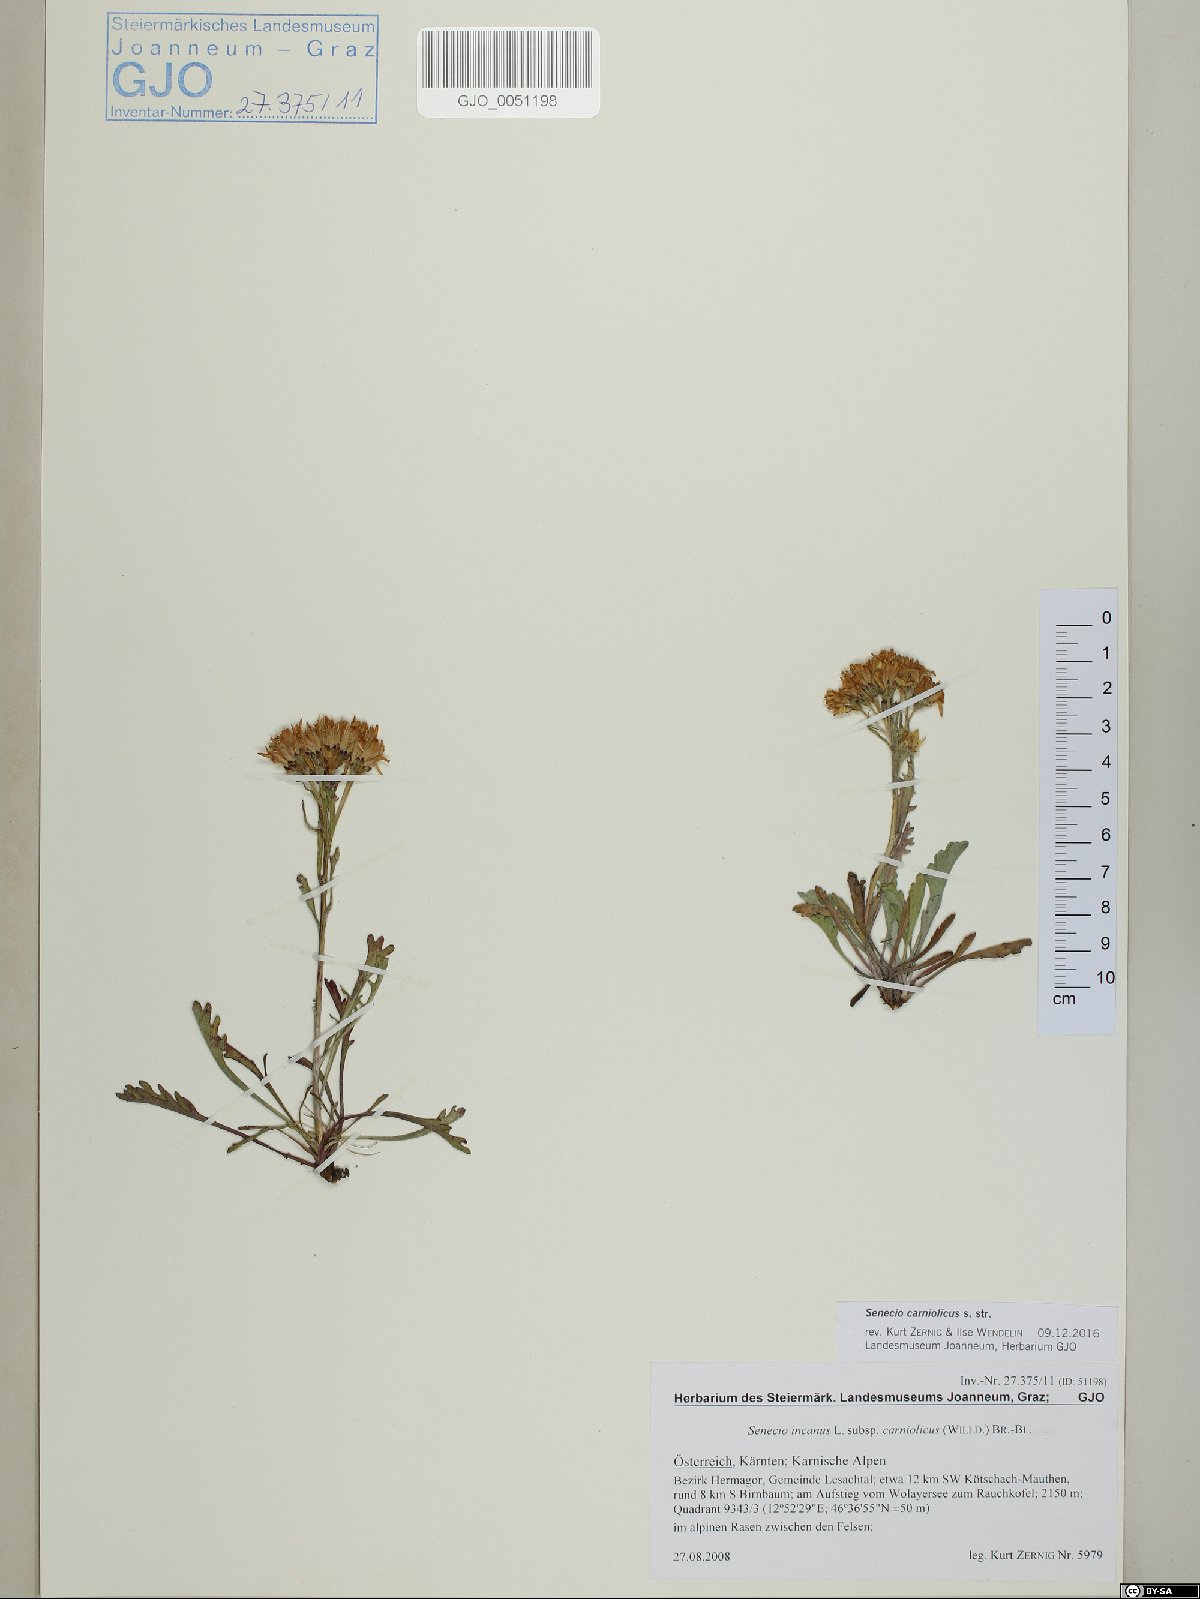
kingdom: Plantae
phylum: Tracheophyta
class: Magnoliopsida
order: Asterales
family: Asteraceae
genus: Jacobaea
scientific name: Jacobaea carniolica
